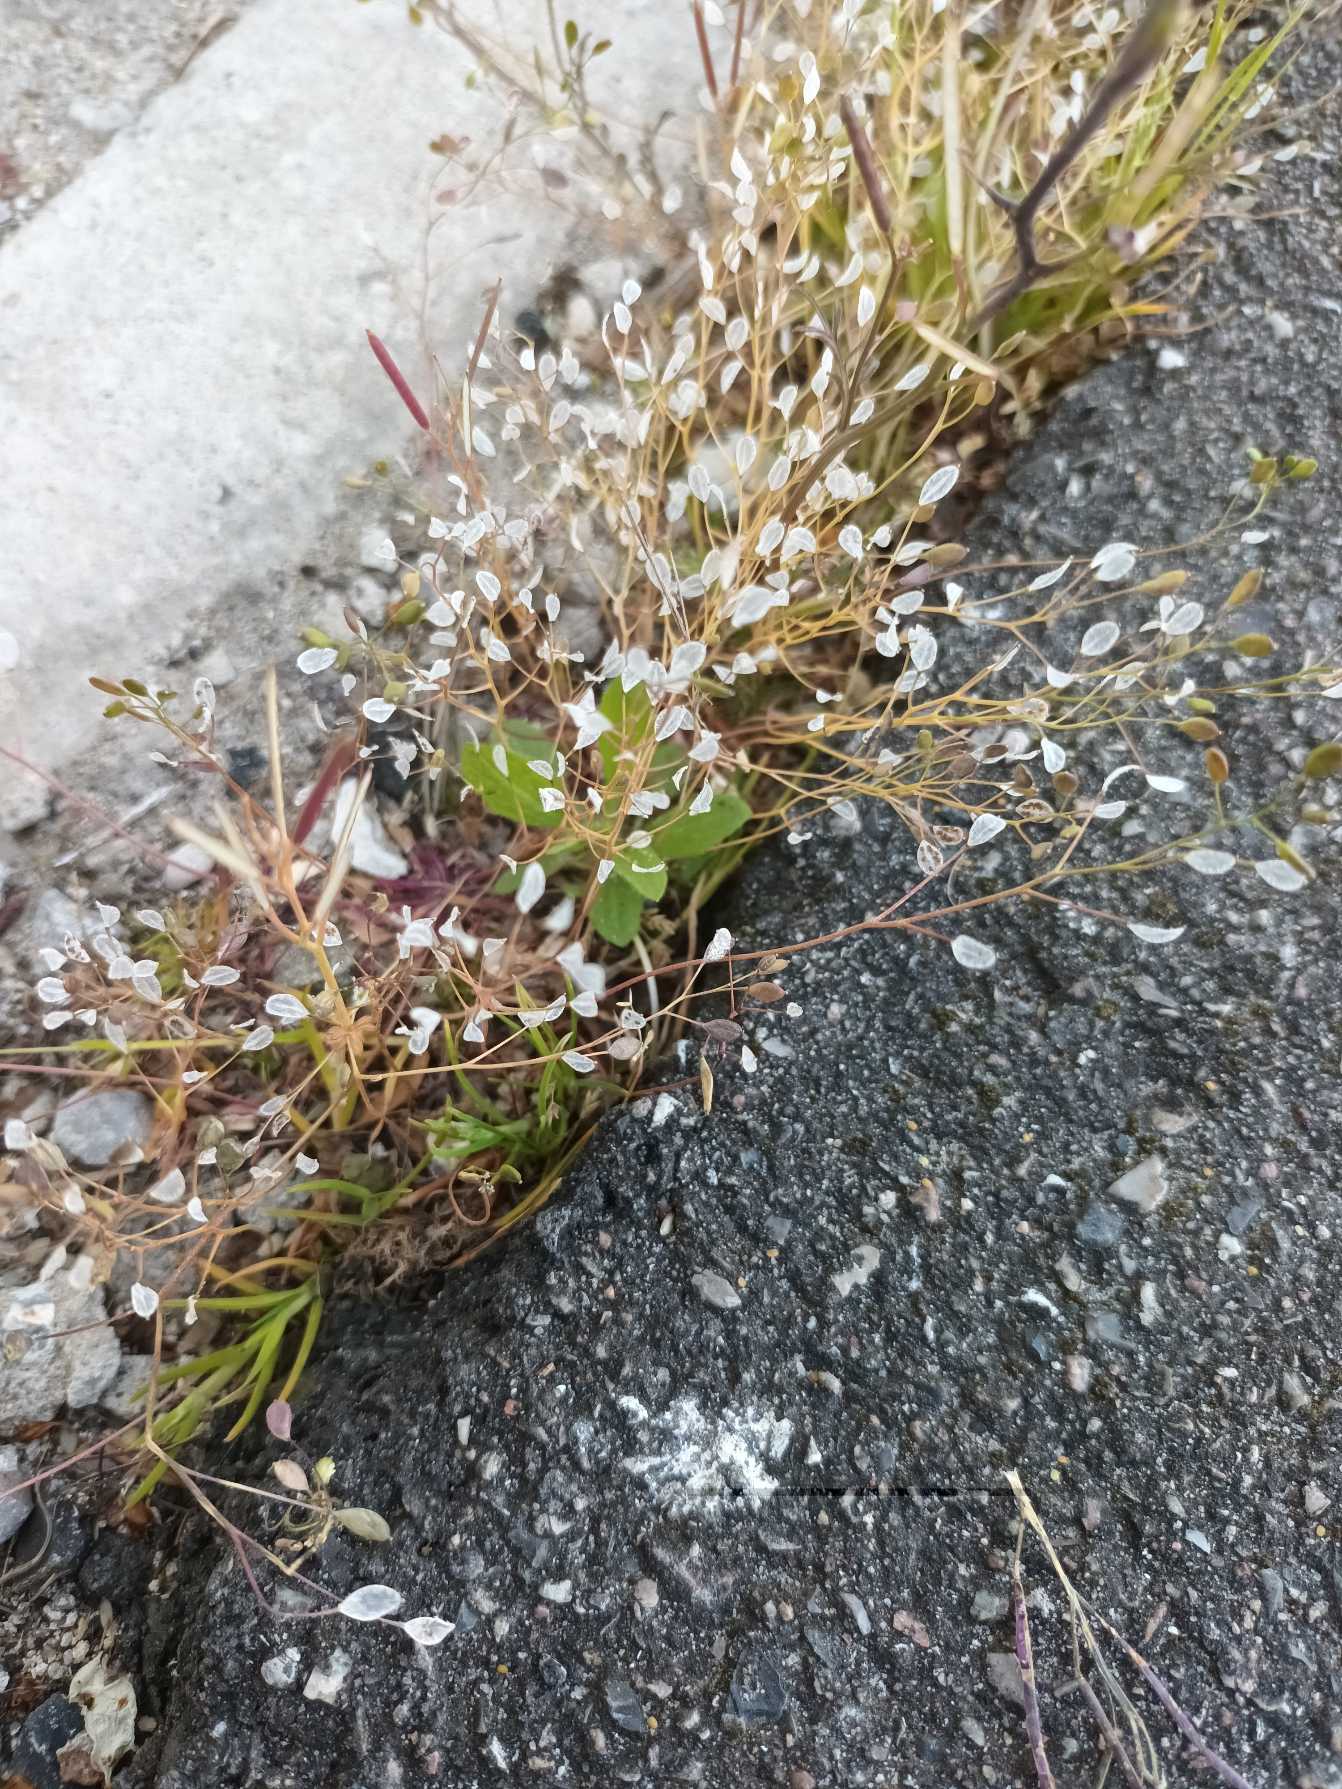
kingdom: Plantae
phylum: Tracheophyta
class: Magnoliopsida
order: Brassicales
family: Brassicaceae
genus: Draba
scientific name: Draba verna
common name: Vår-gæslingeblomst
